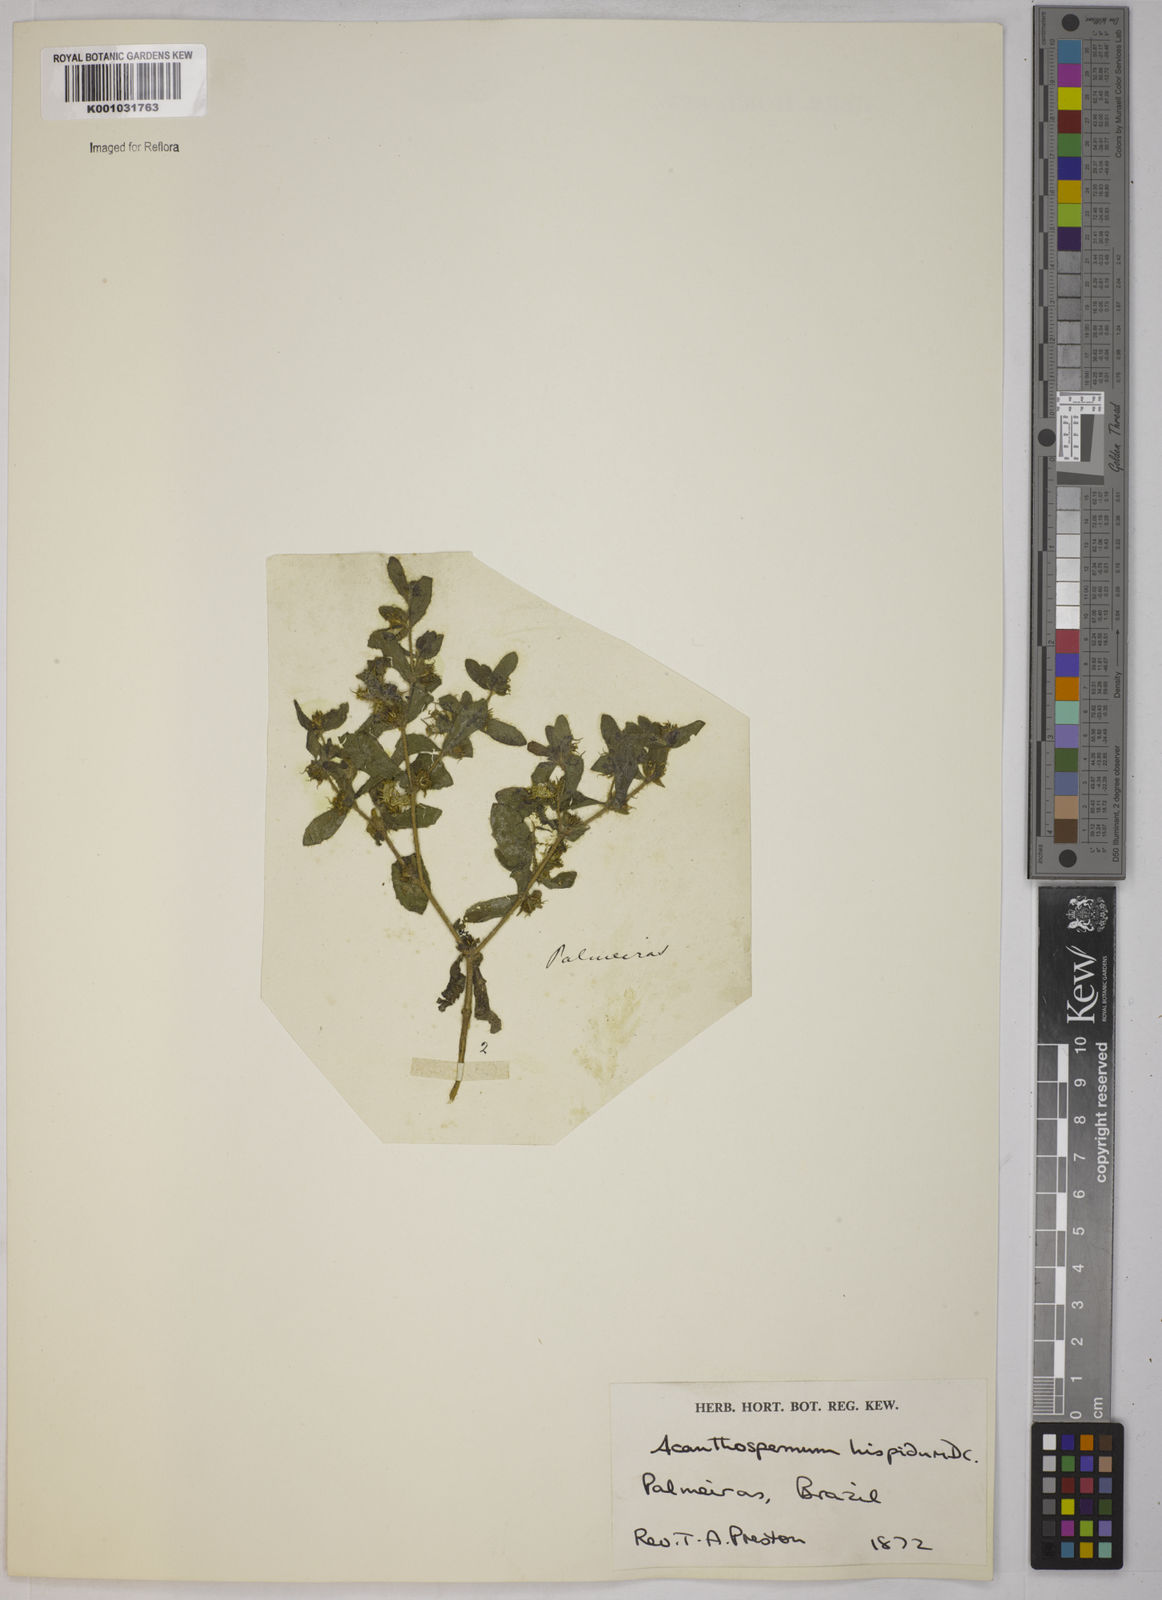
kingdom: Plantae
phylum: Tracheophyta
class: Magnoliopsida
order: Asterales
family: Asteraceae
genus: Acanthospermum
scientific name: Acanthospermum hispidum
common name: Hispid starbur
